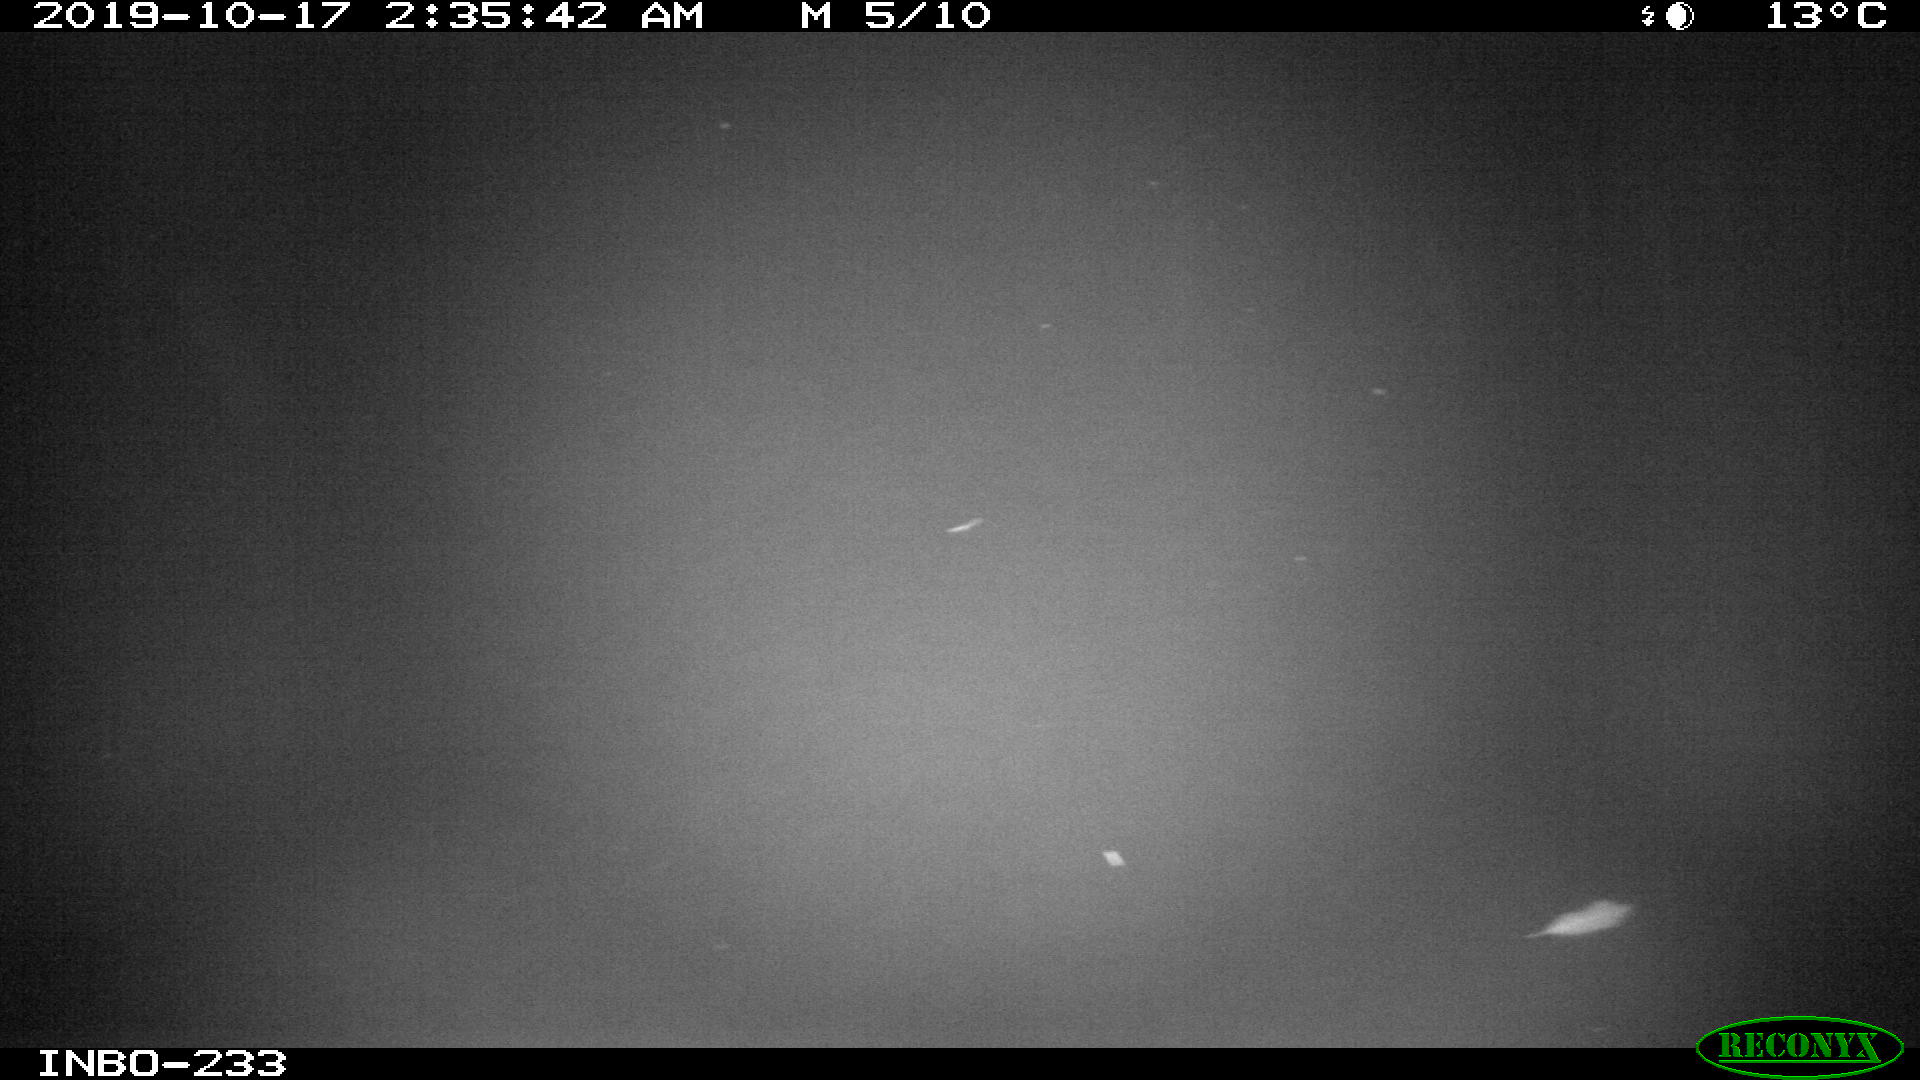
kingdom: Animalia
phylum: Chordata
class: Aves
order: Anseriformes
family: Anatidae
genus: Anas
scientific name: Anas platyrhynchos
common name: Mallard
